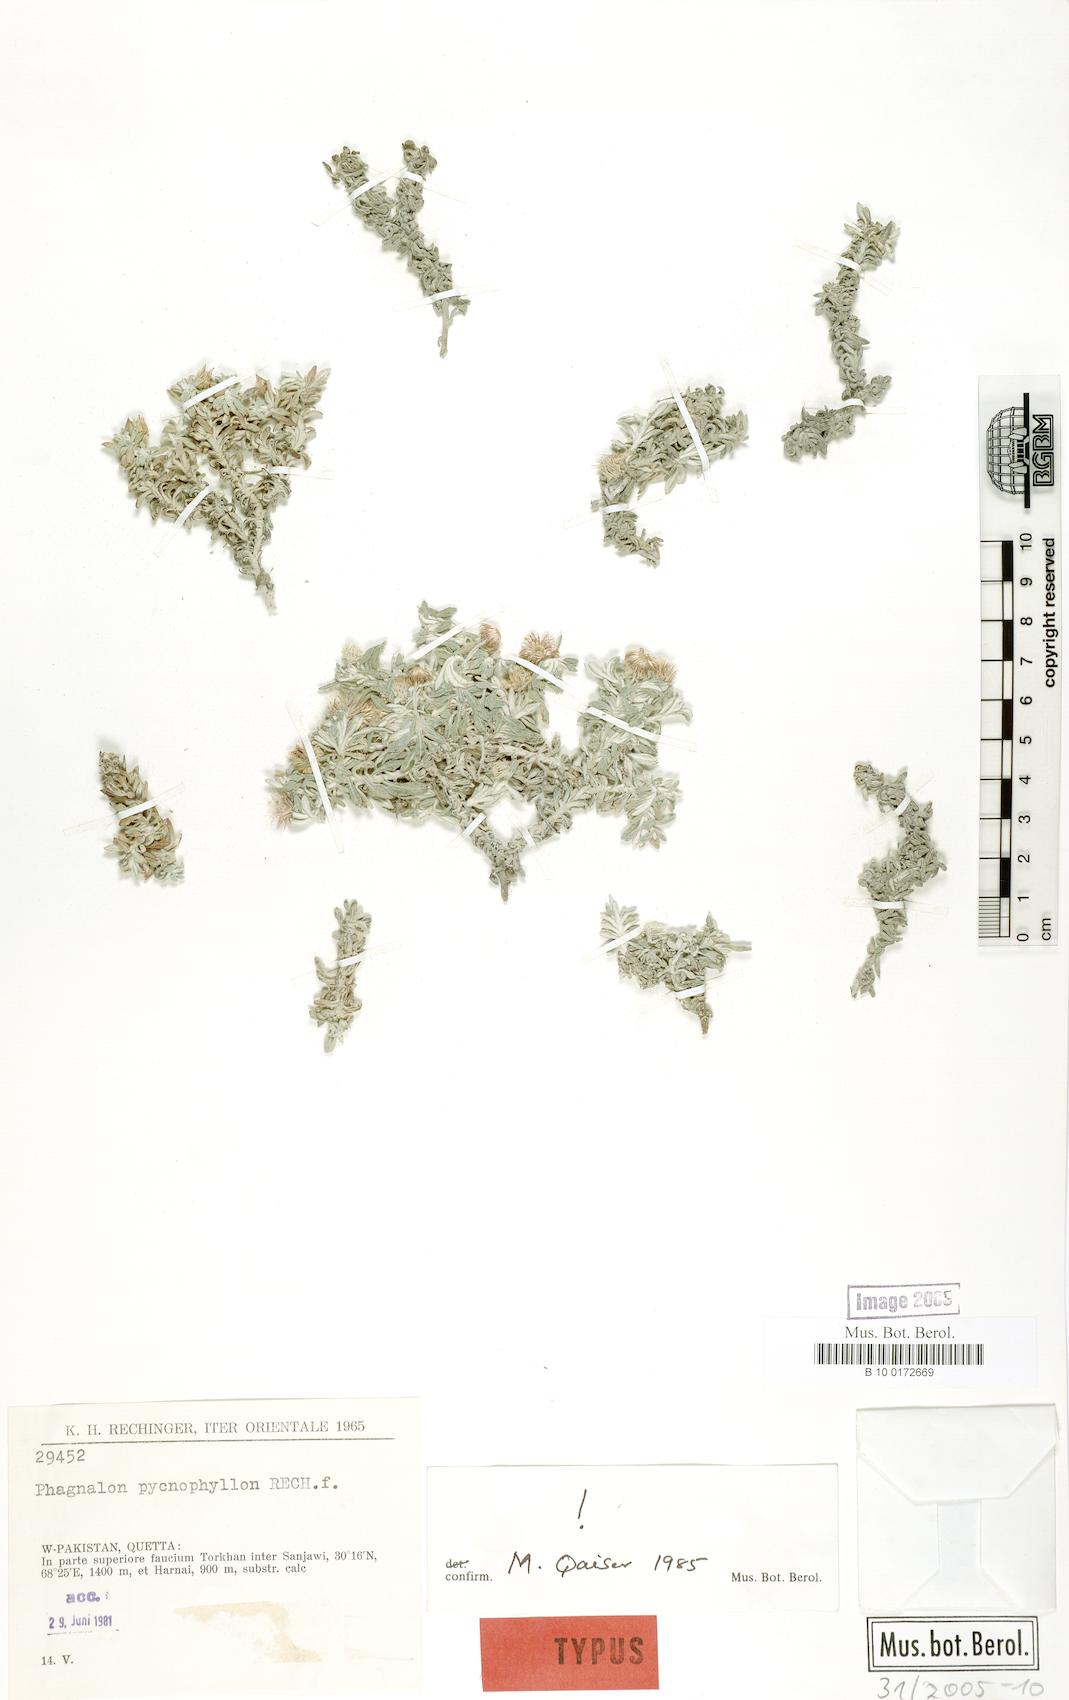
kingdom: Plantae
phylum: Tracheophyta
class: Magnoliopsida
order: Asterales
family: Asteraceae
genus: Phagnalon
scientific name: Phagnalon pycnophyllon
